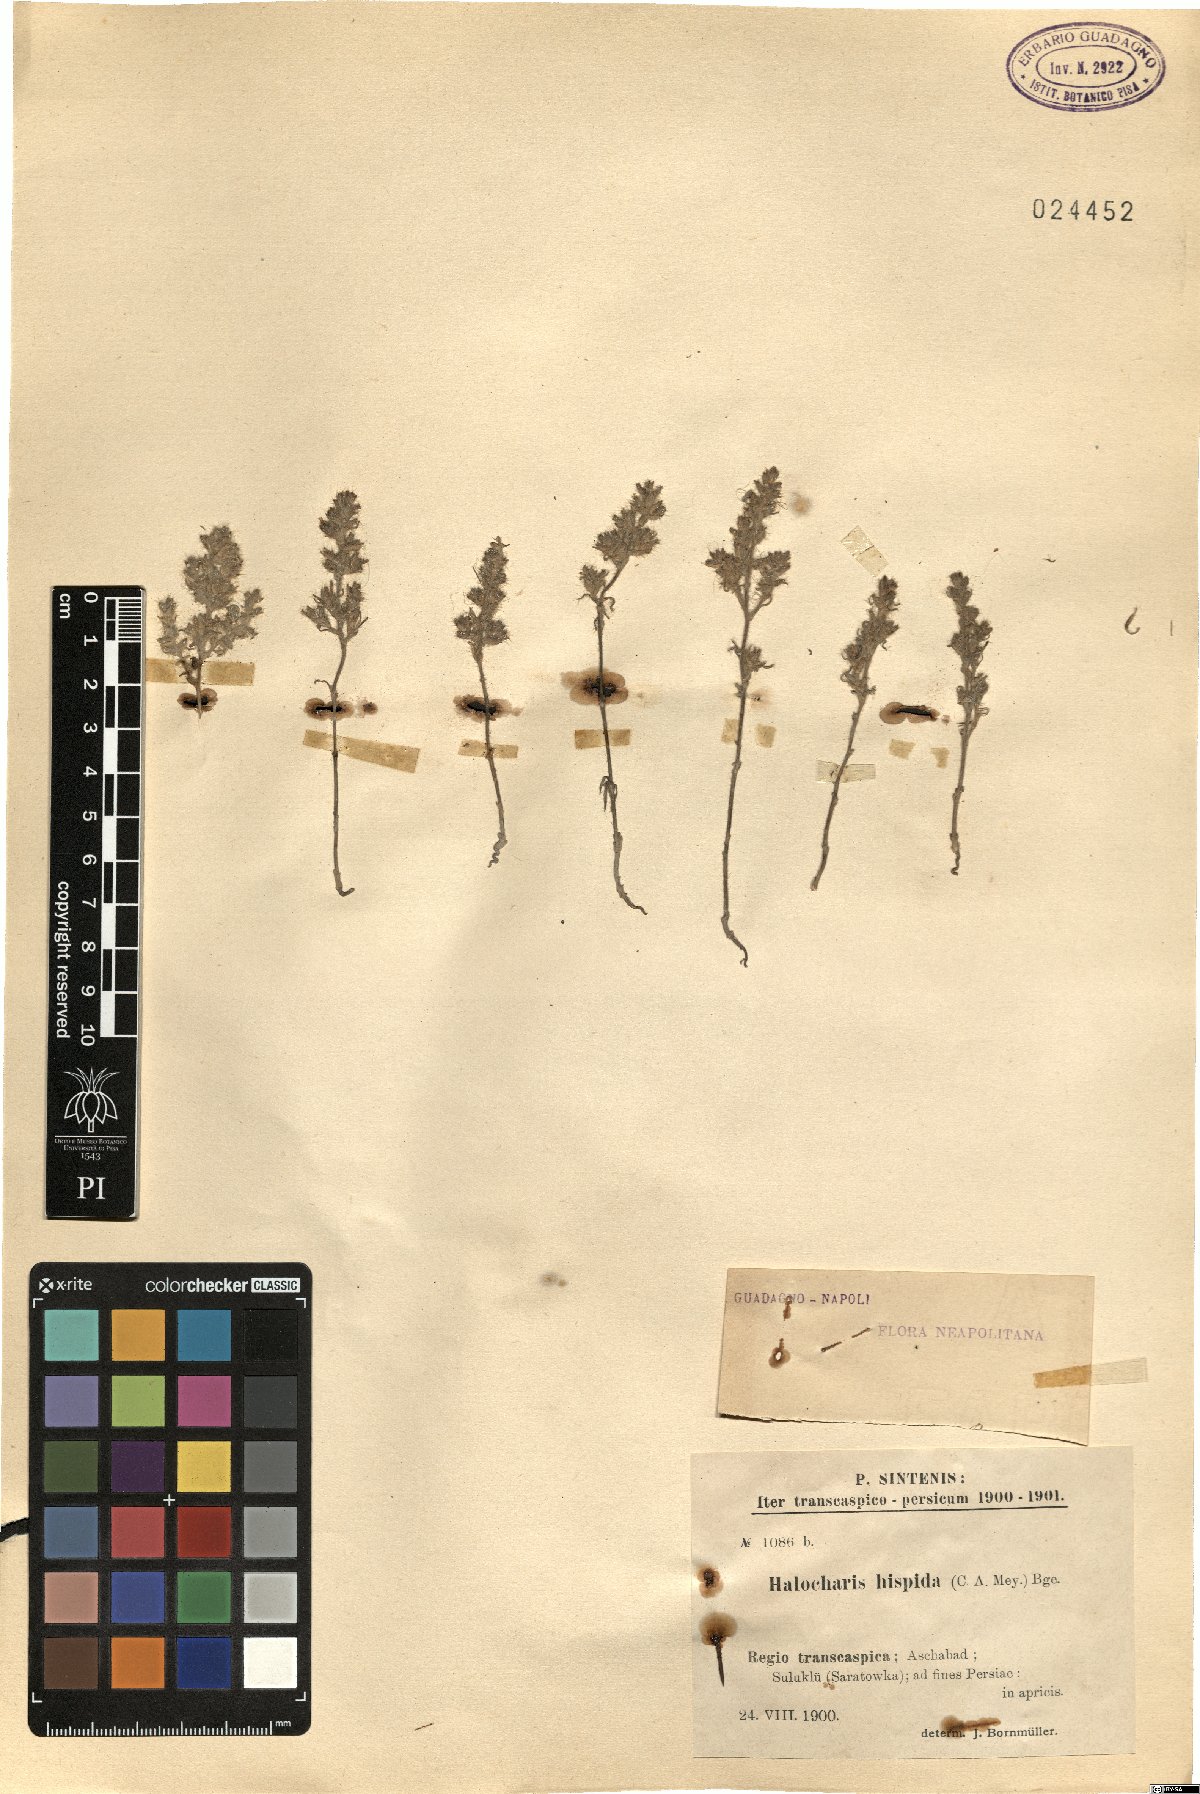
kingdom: Plantae
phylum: Tracheophyta
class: Magnoliopsida
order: Caryophyllales
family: Amaranthaceae
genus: Halocharis
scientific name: Halocharis hispida
